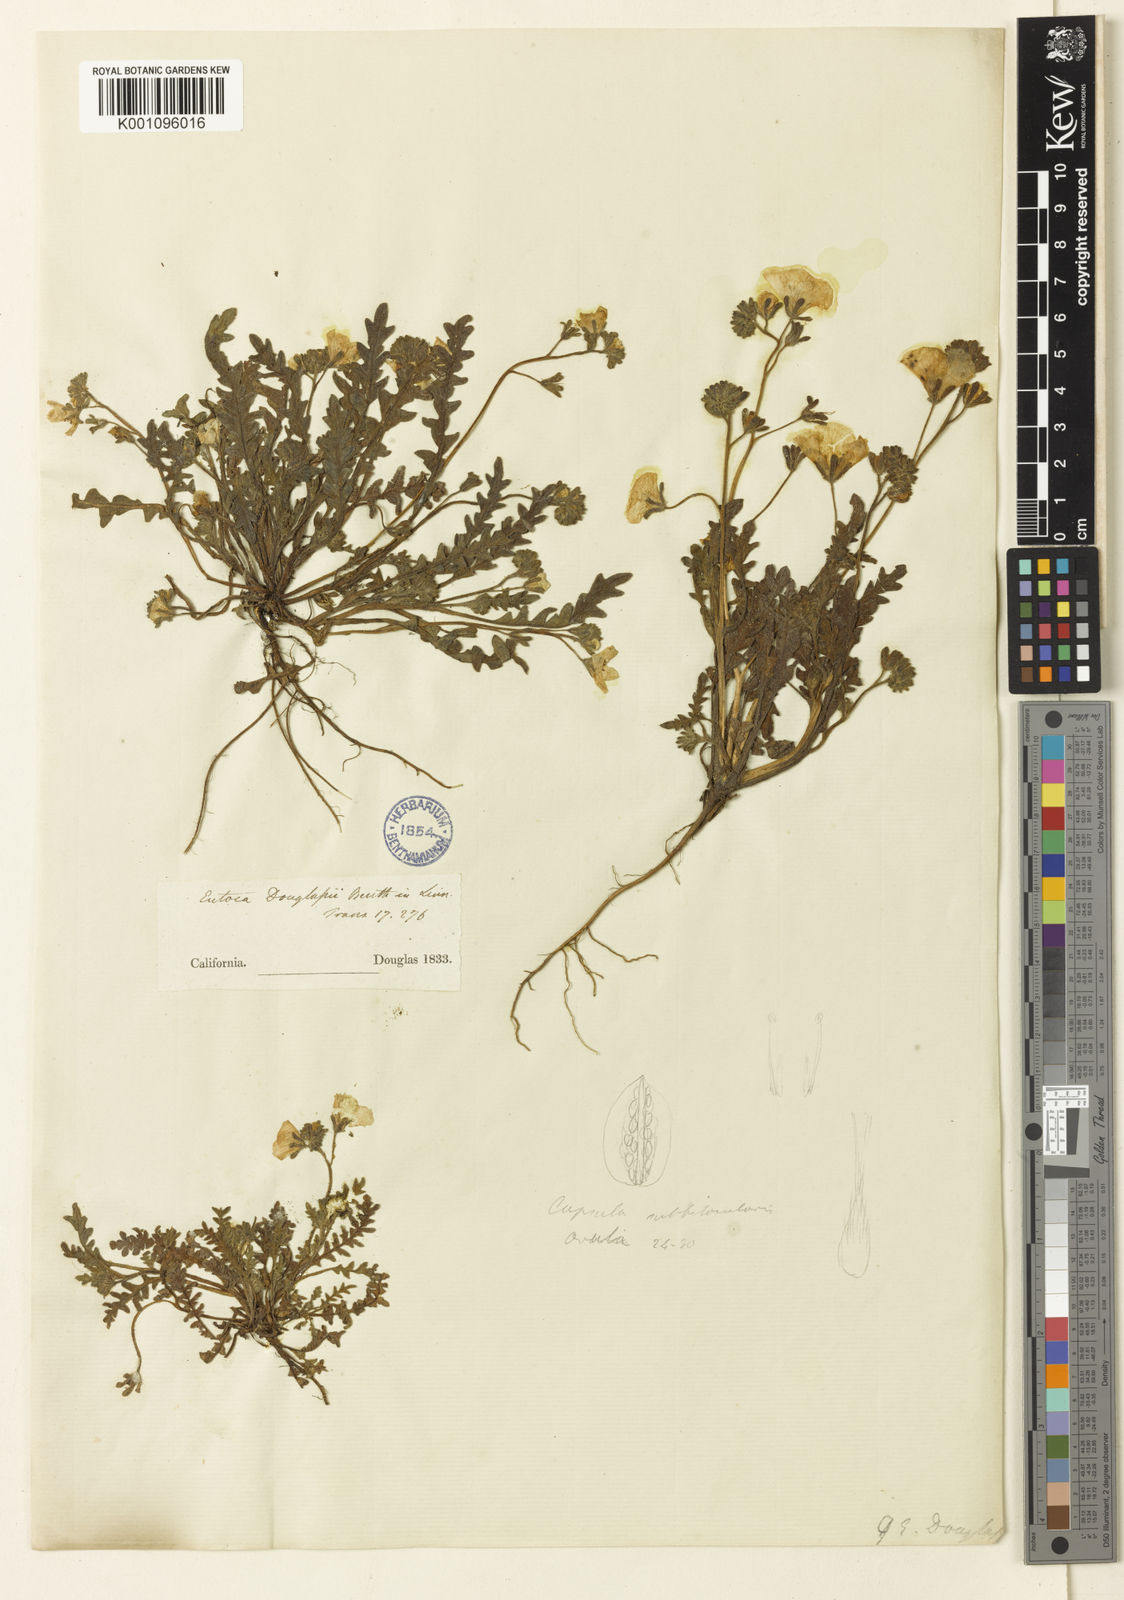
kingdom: Plantae
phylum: Tracheophyta
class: Magnoliopsida
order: Boraginales
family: Hydrophyllaceae
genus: Phacelia
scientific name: Phacelia douglasii
